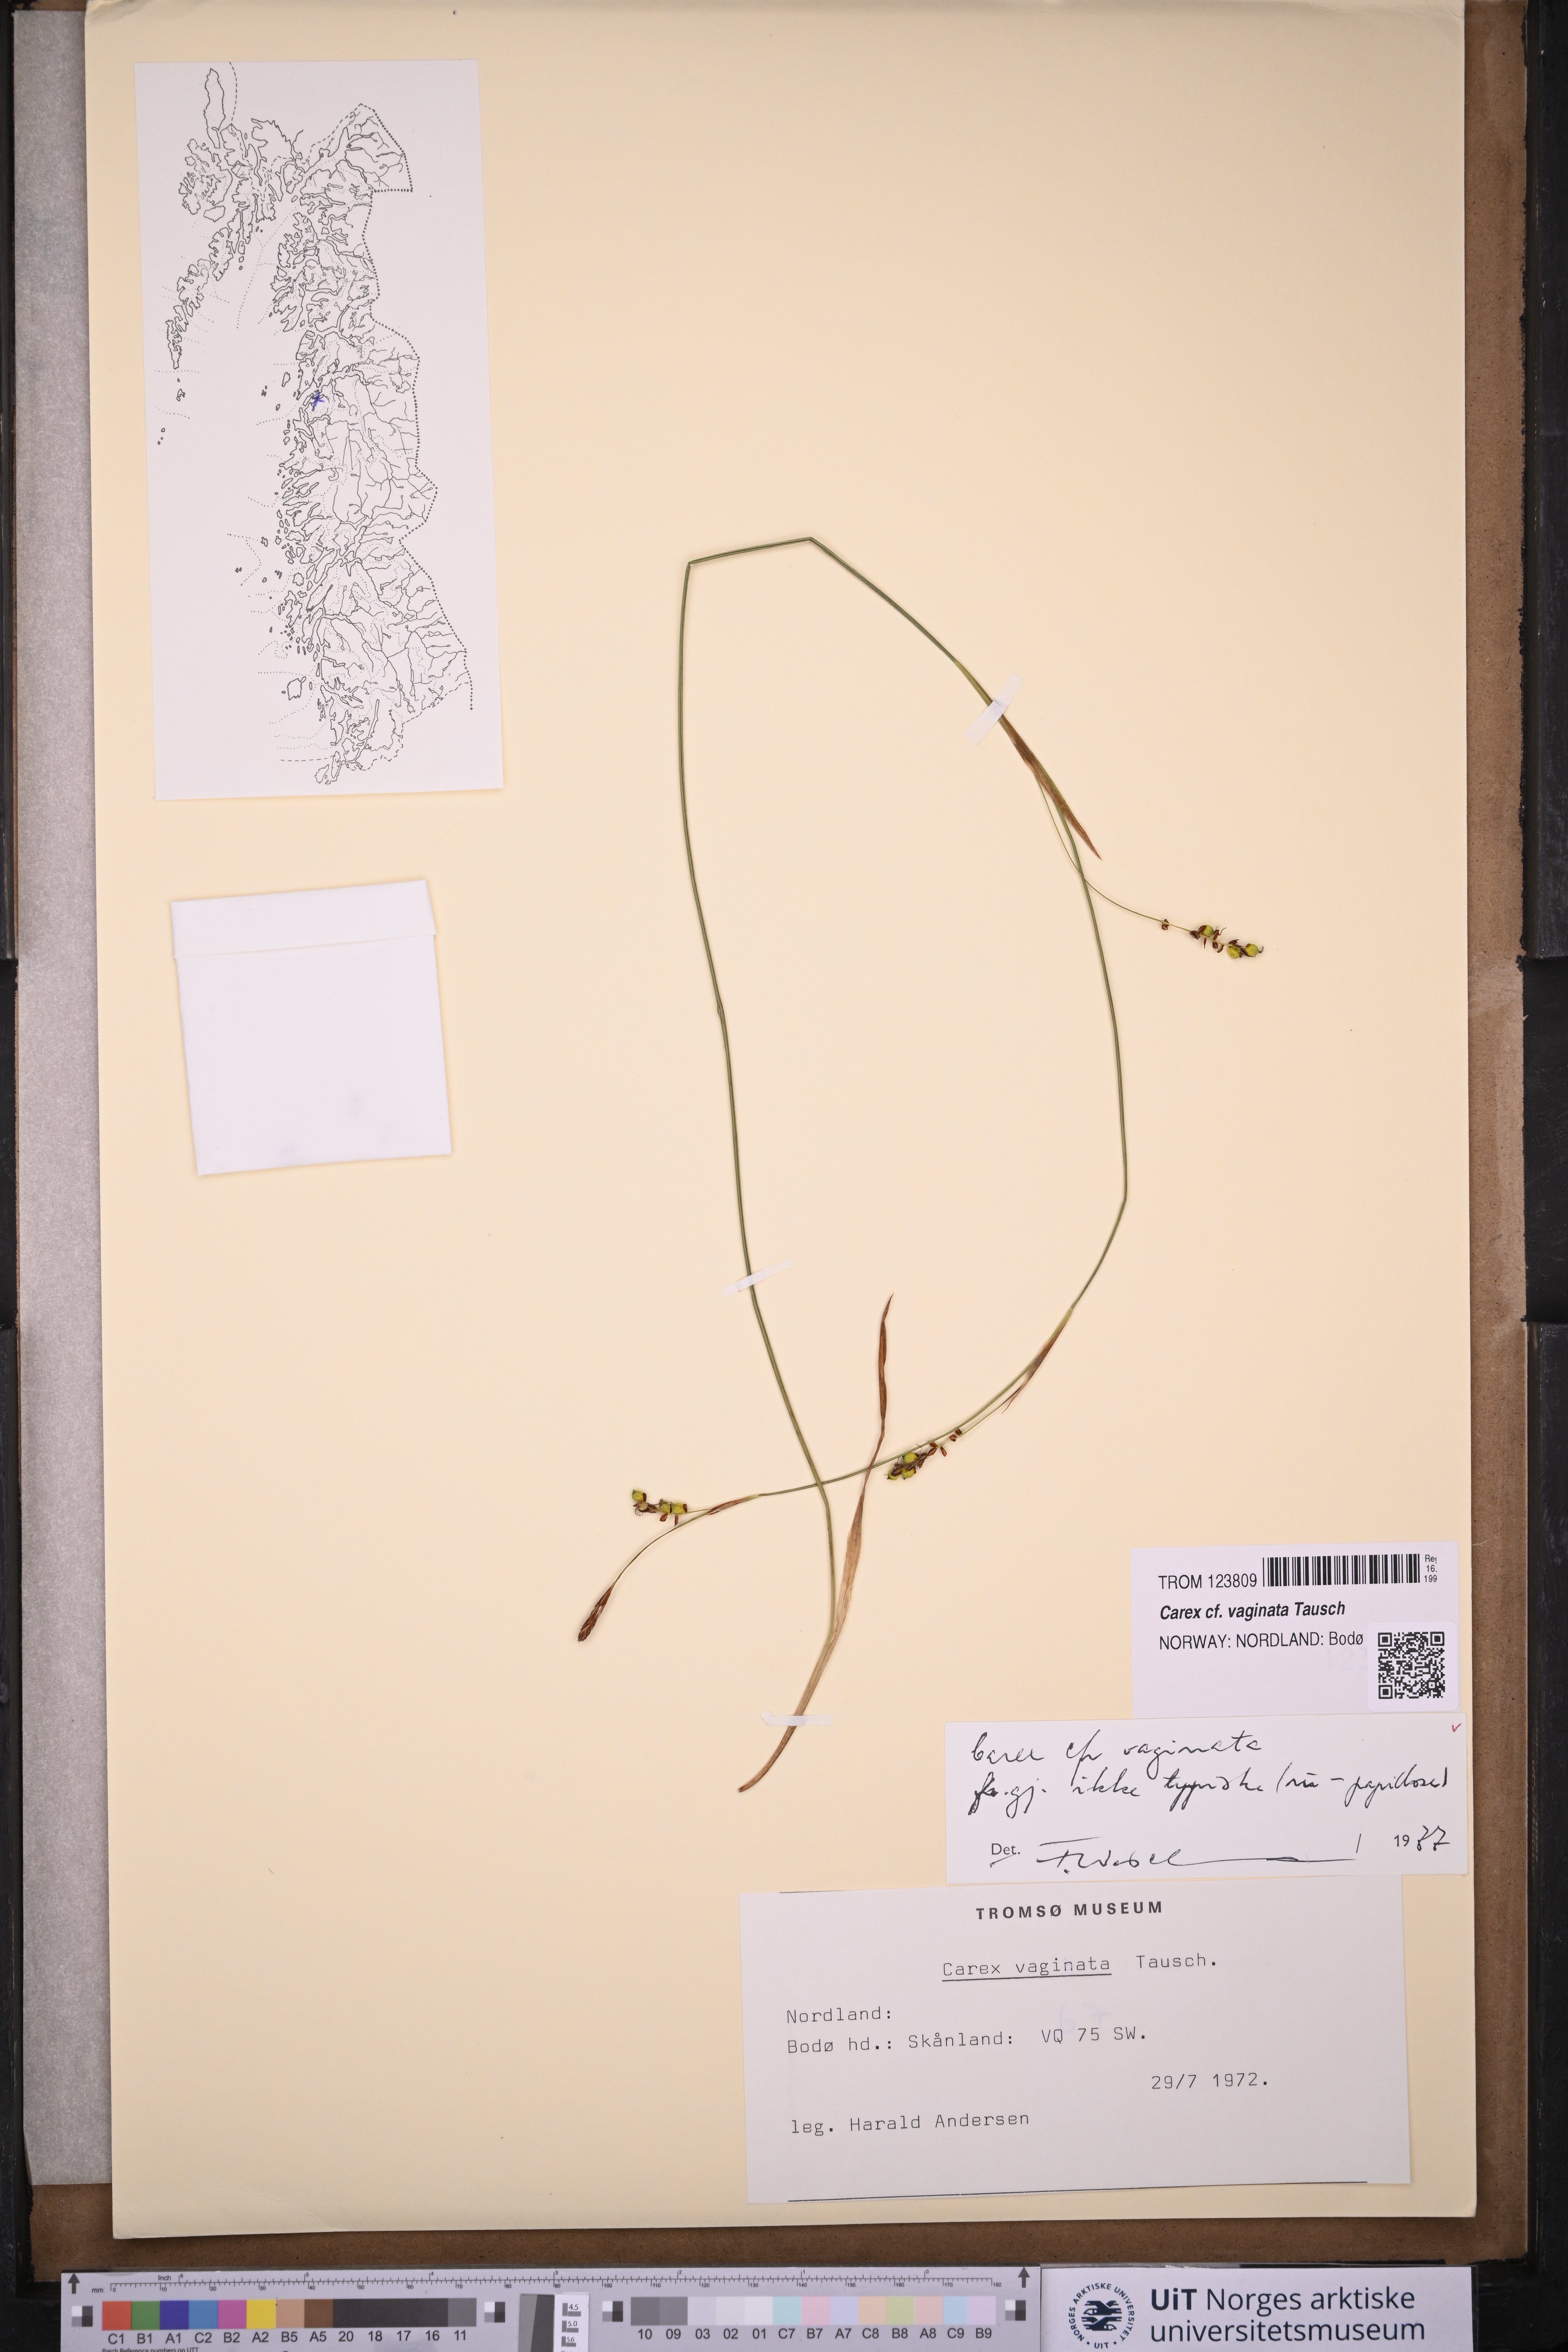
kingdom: Plantae
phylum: Tracheophyta
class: Liliopsida
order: Poales
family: Cyperaceae
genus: Carex
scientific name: Carex vaginata
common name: Sheathed sedge
